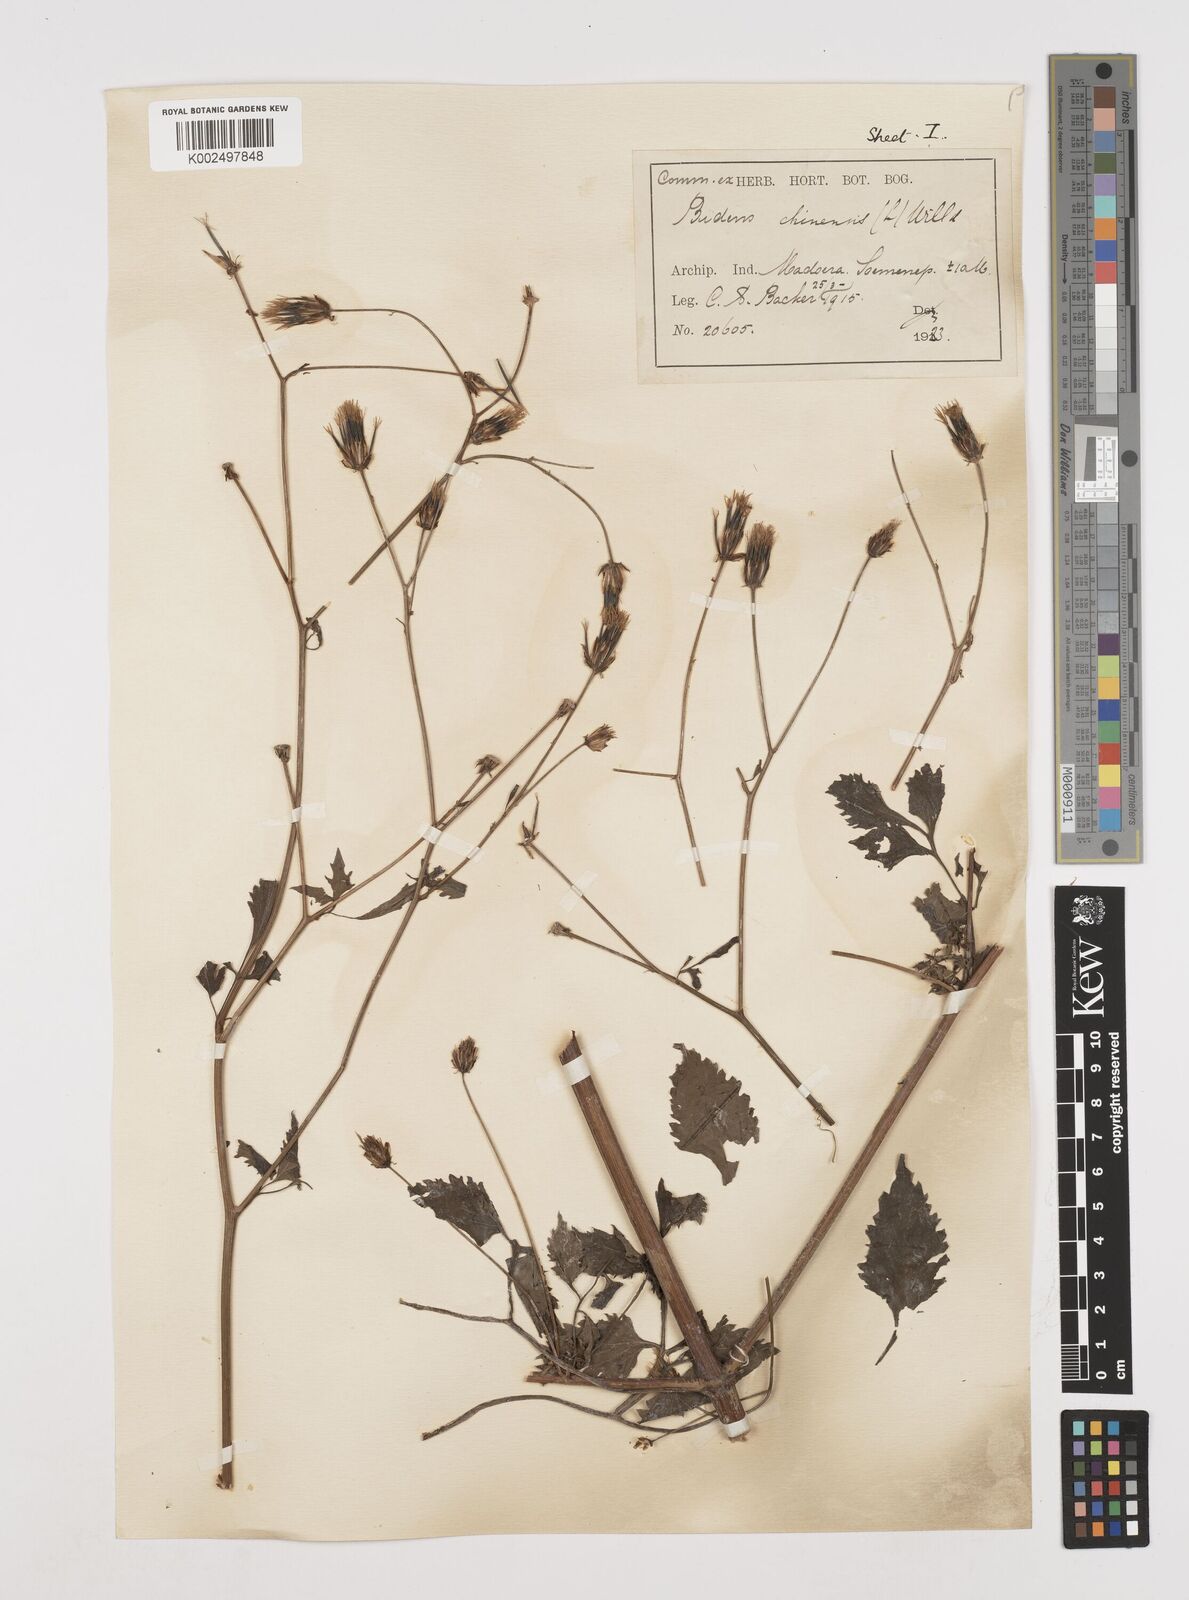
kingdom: Plantae
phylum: Tracheophyta
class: Magnoliopsida
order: Asterales
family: Asteraceae
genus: Bidens
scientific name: Bidens biternata
